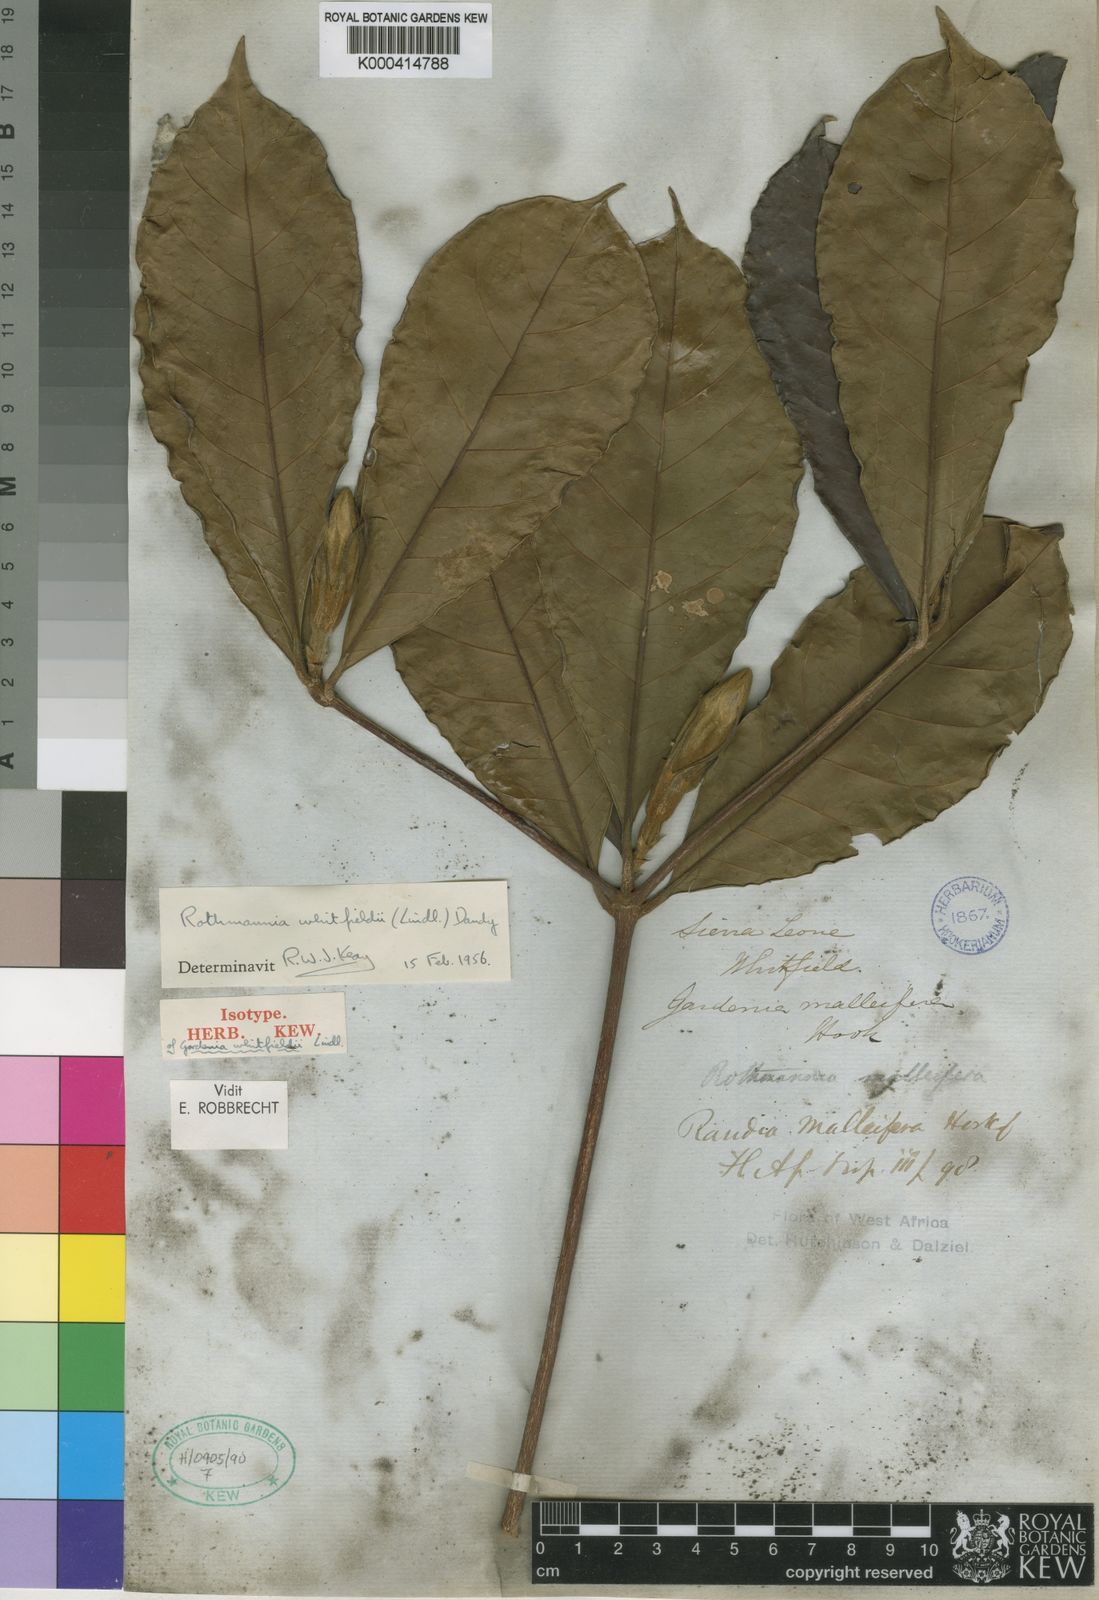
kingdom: Plantae
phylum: Tracheophyta
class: Magnoliopsida
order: Gentianales
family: Rubiaceae
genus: Rothmannia
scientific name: Rothmannia whitfieldii
